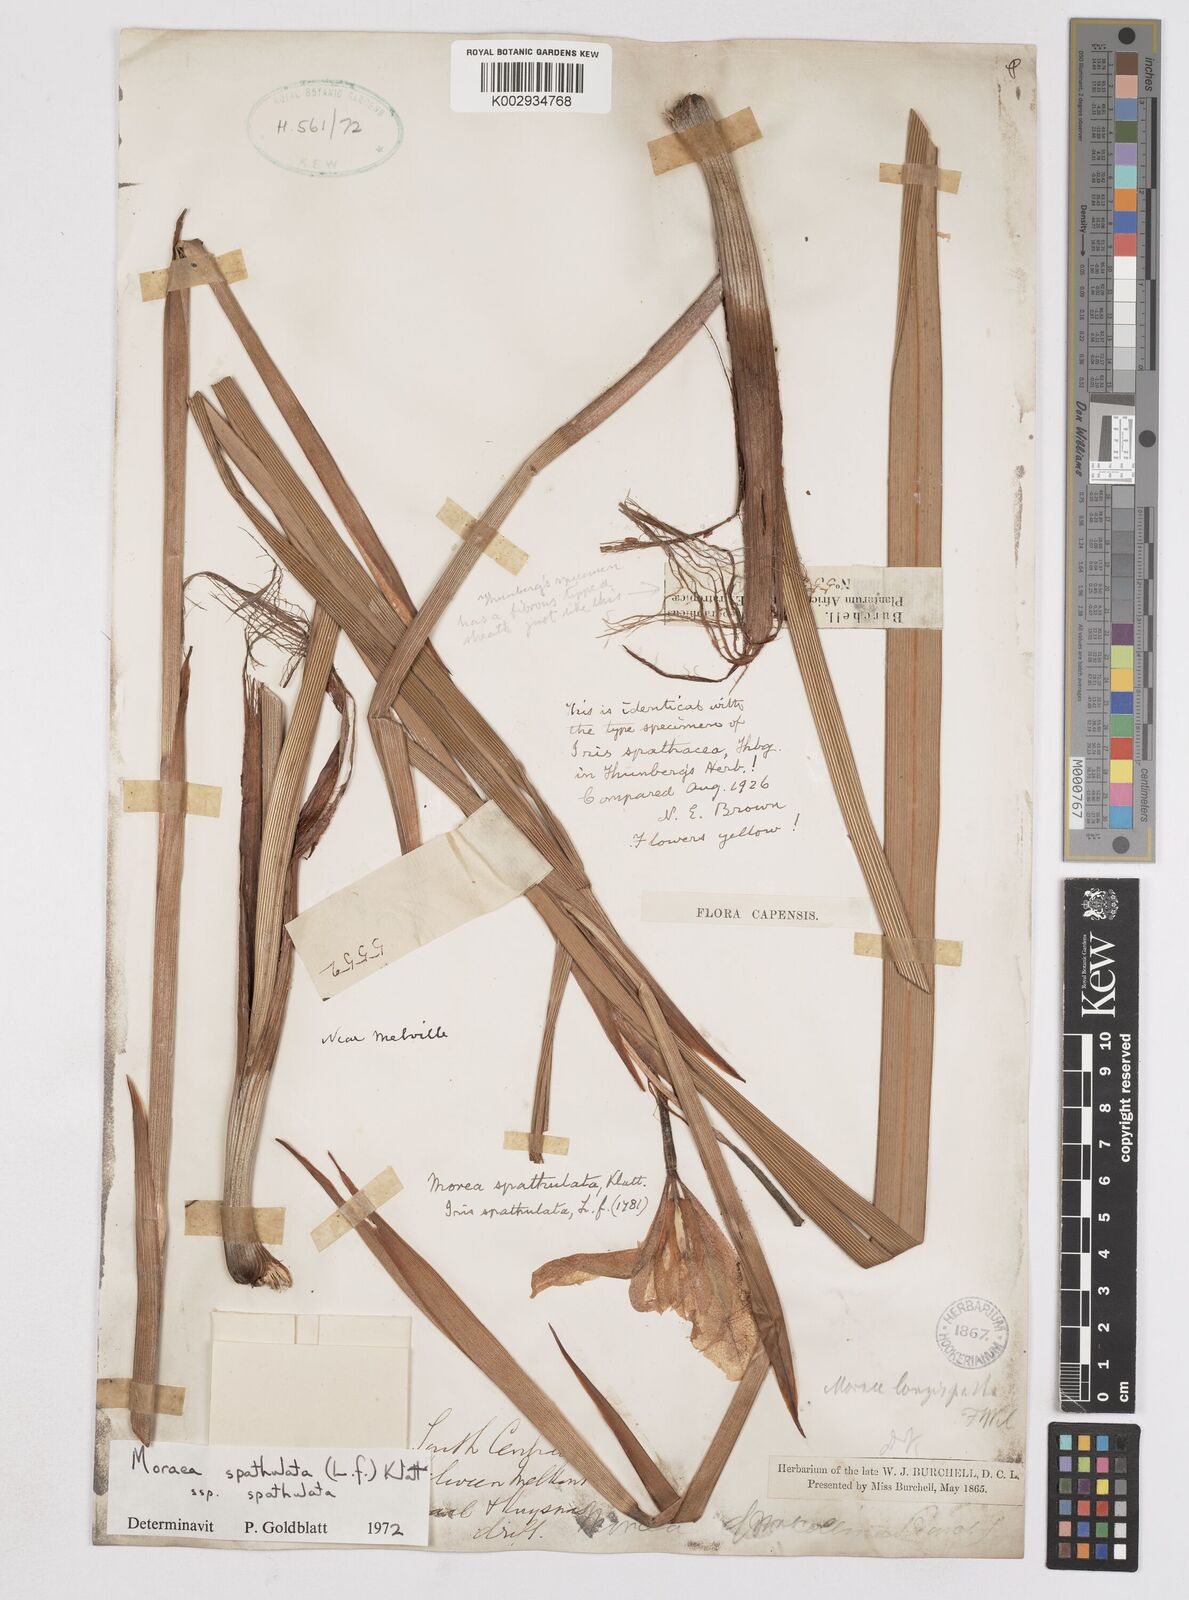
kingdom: Plantae
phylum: Tracheophyta
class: Liliopsida
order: Asparagales
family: Iridaceae
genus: Moraea
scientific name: Moraea spathulata
